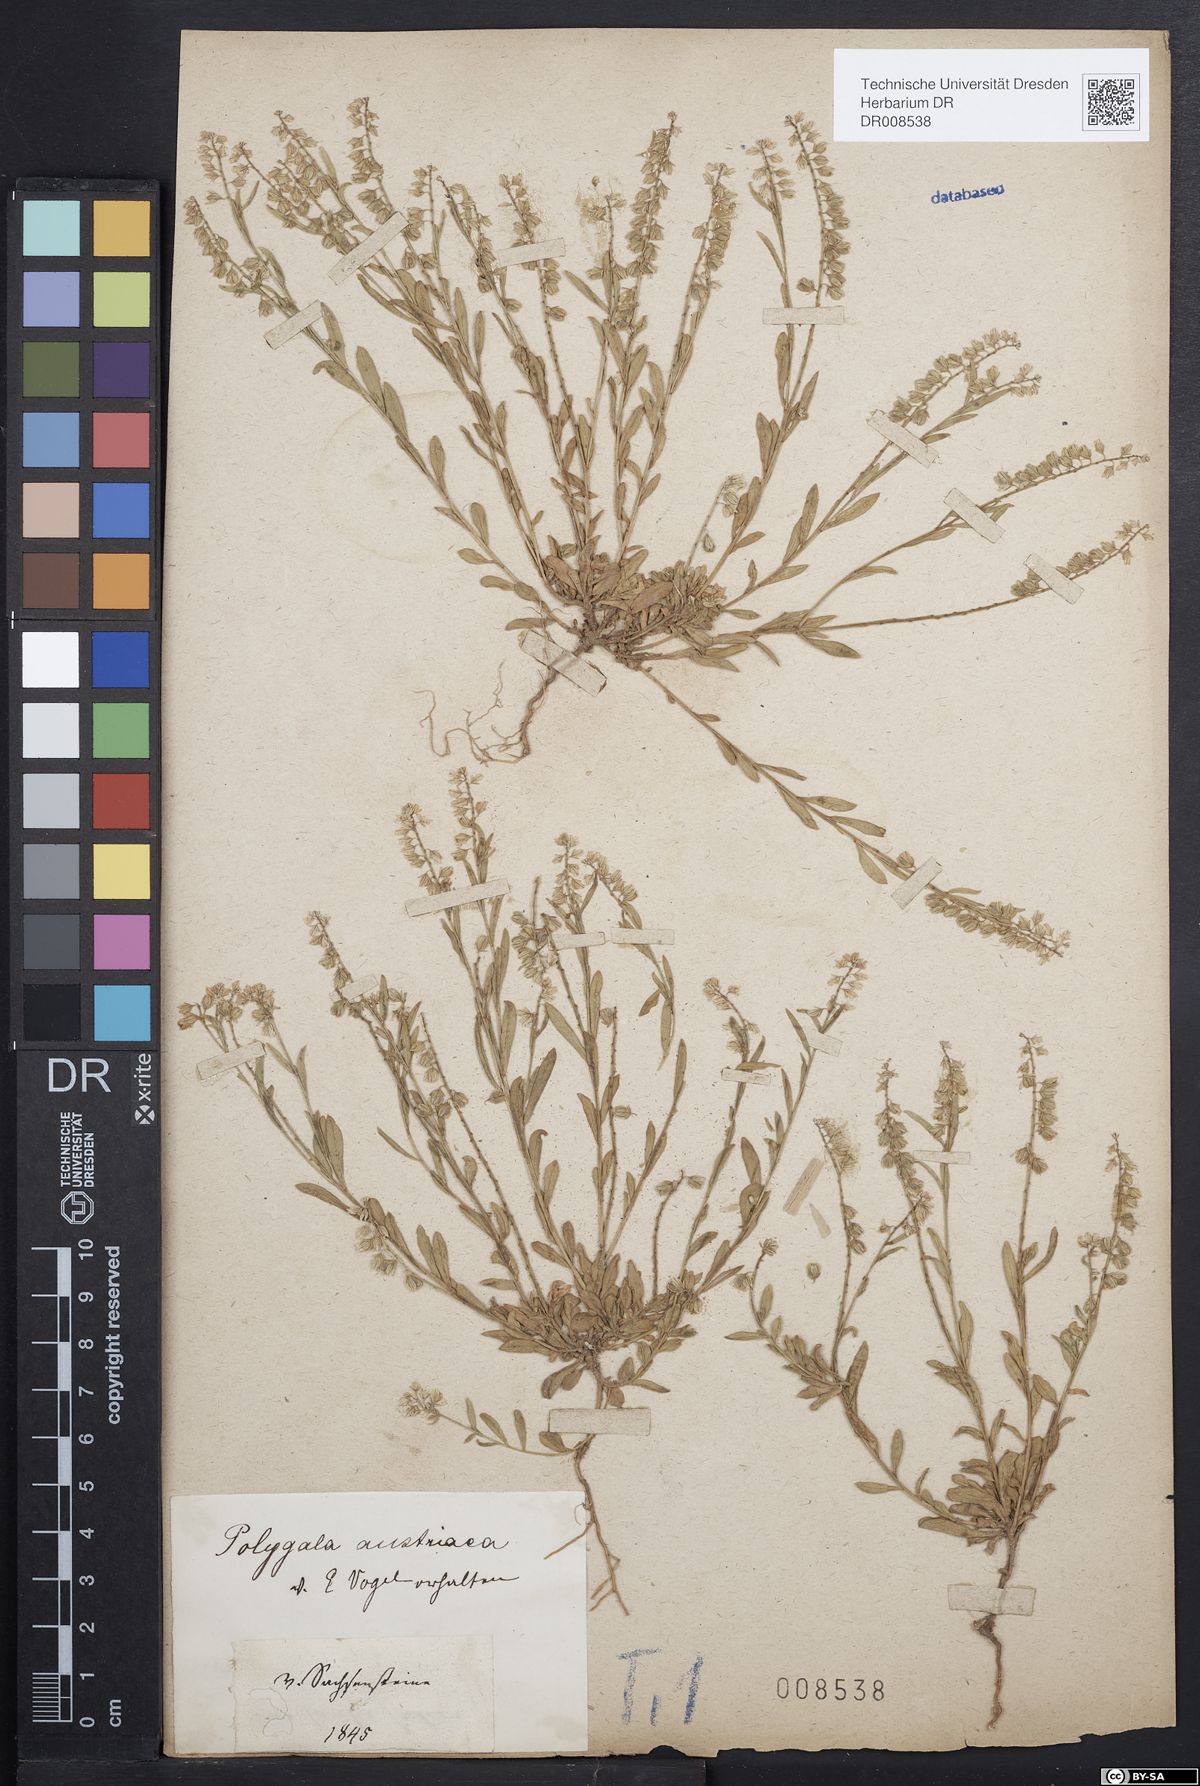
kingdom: Plantae
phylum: Tracheophyta
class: Magnoliopsida
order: Fabales
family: Polygalaceae
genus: Polygala
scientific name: Polygala amarella
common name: Dwarf milkwort
